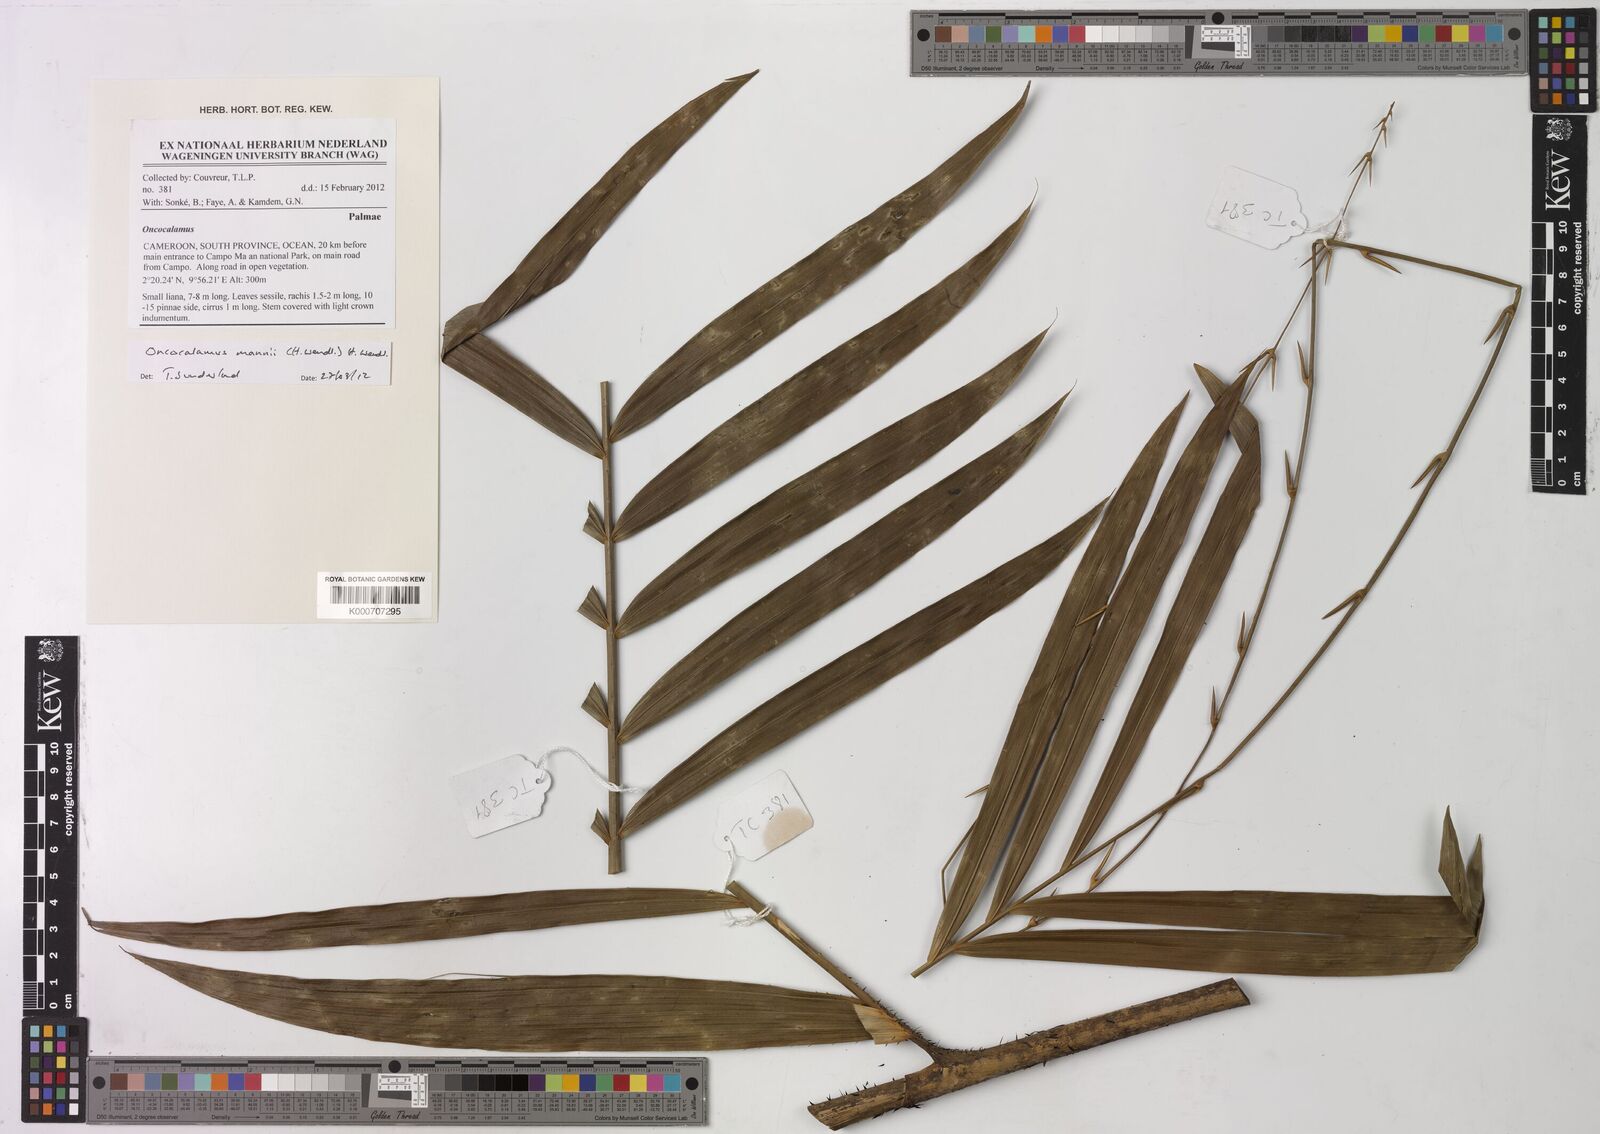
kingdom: Plantae
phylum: Tracheophyta
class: Liliopsida
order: Arecales
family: Arecaceae
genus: Oncocalamus
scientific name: Oncocalamus mannii
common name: Rattan
